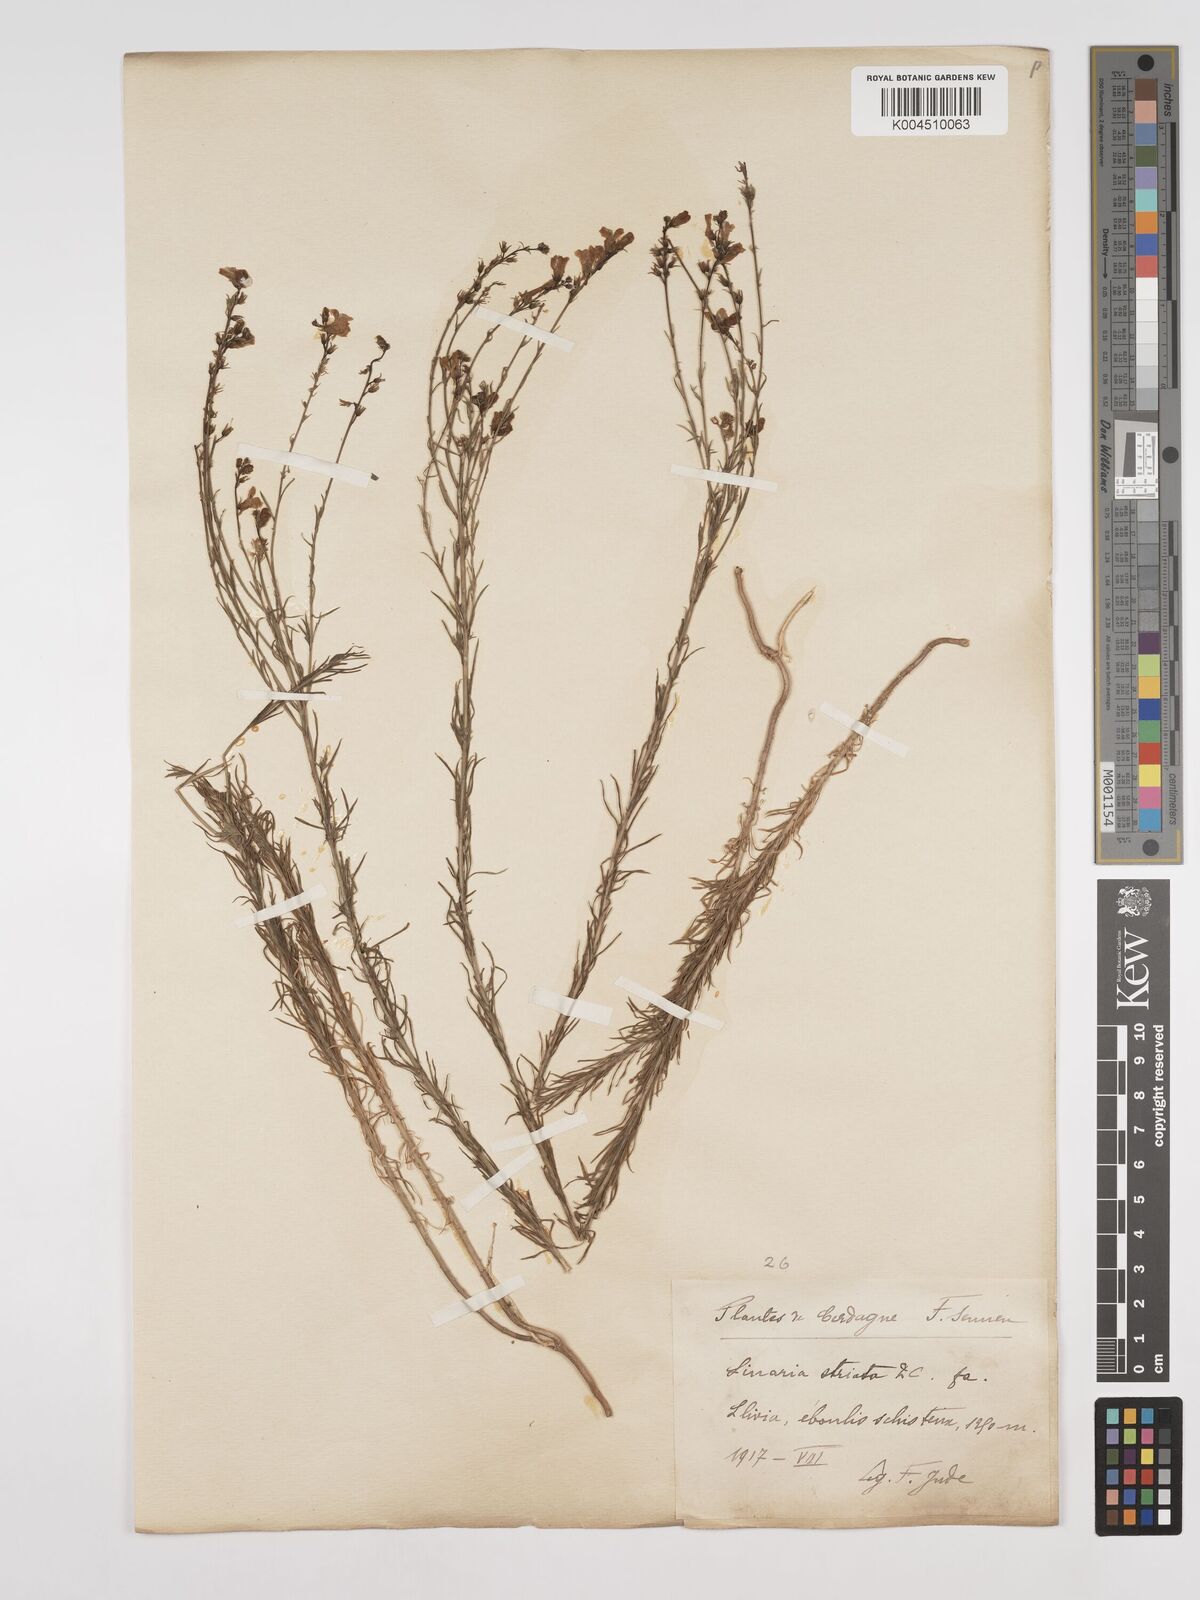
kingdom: Plantae
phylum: Tracheophyta
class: Magnoliopsida
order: Lamiales
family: Plantaginaceae
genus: Linaria
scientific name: Linaria
